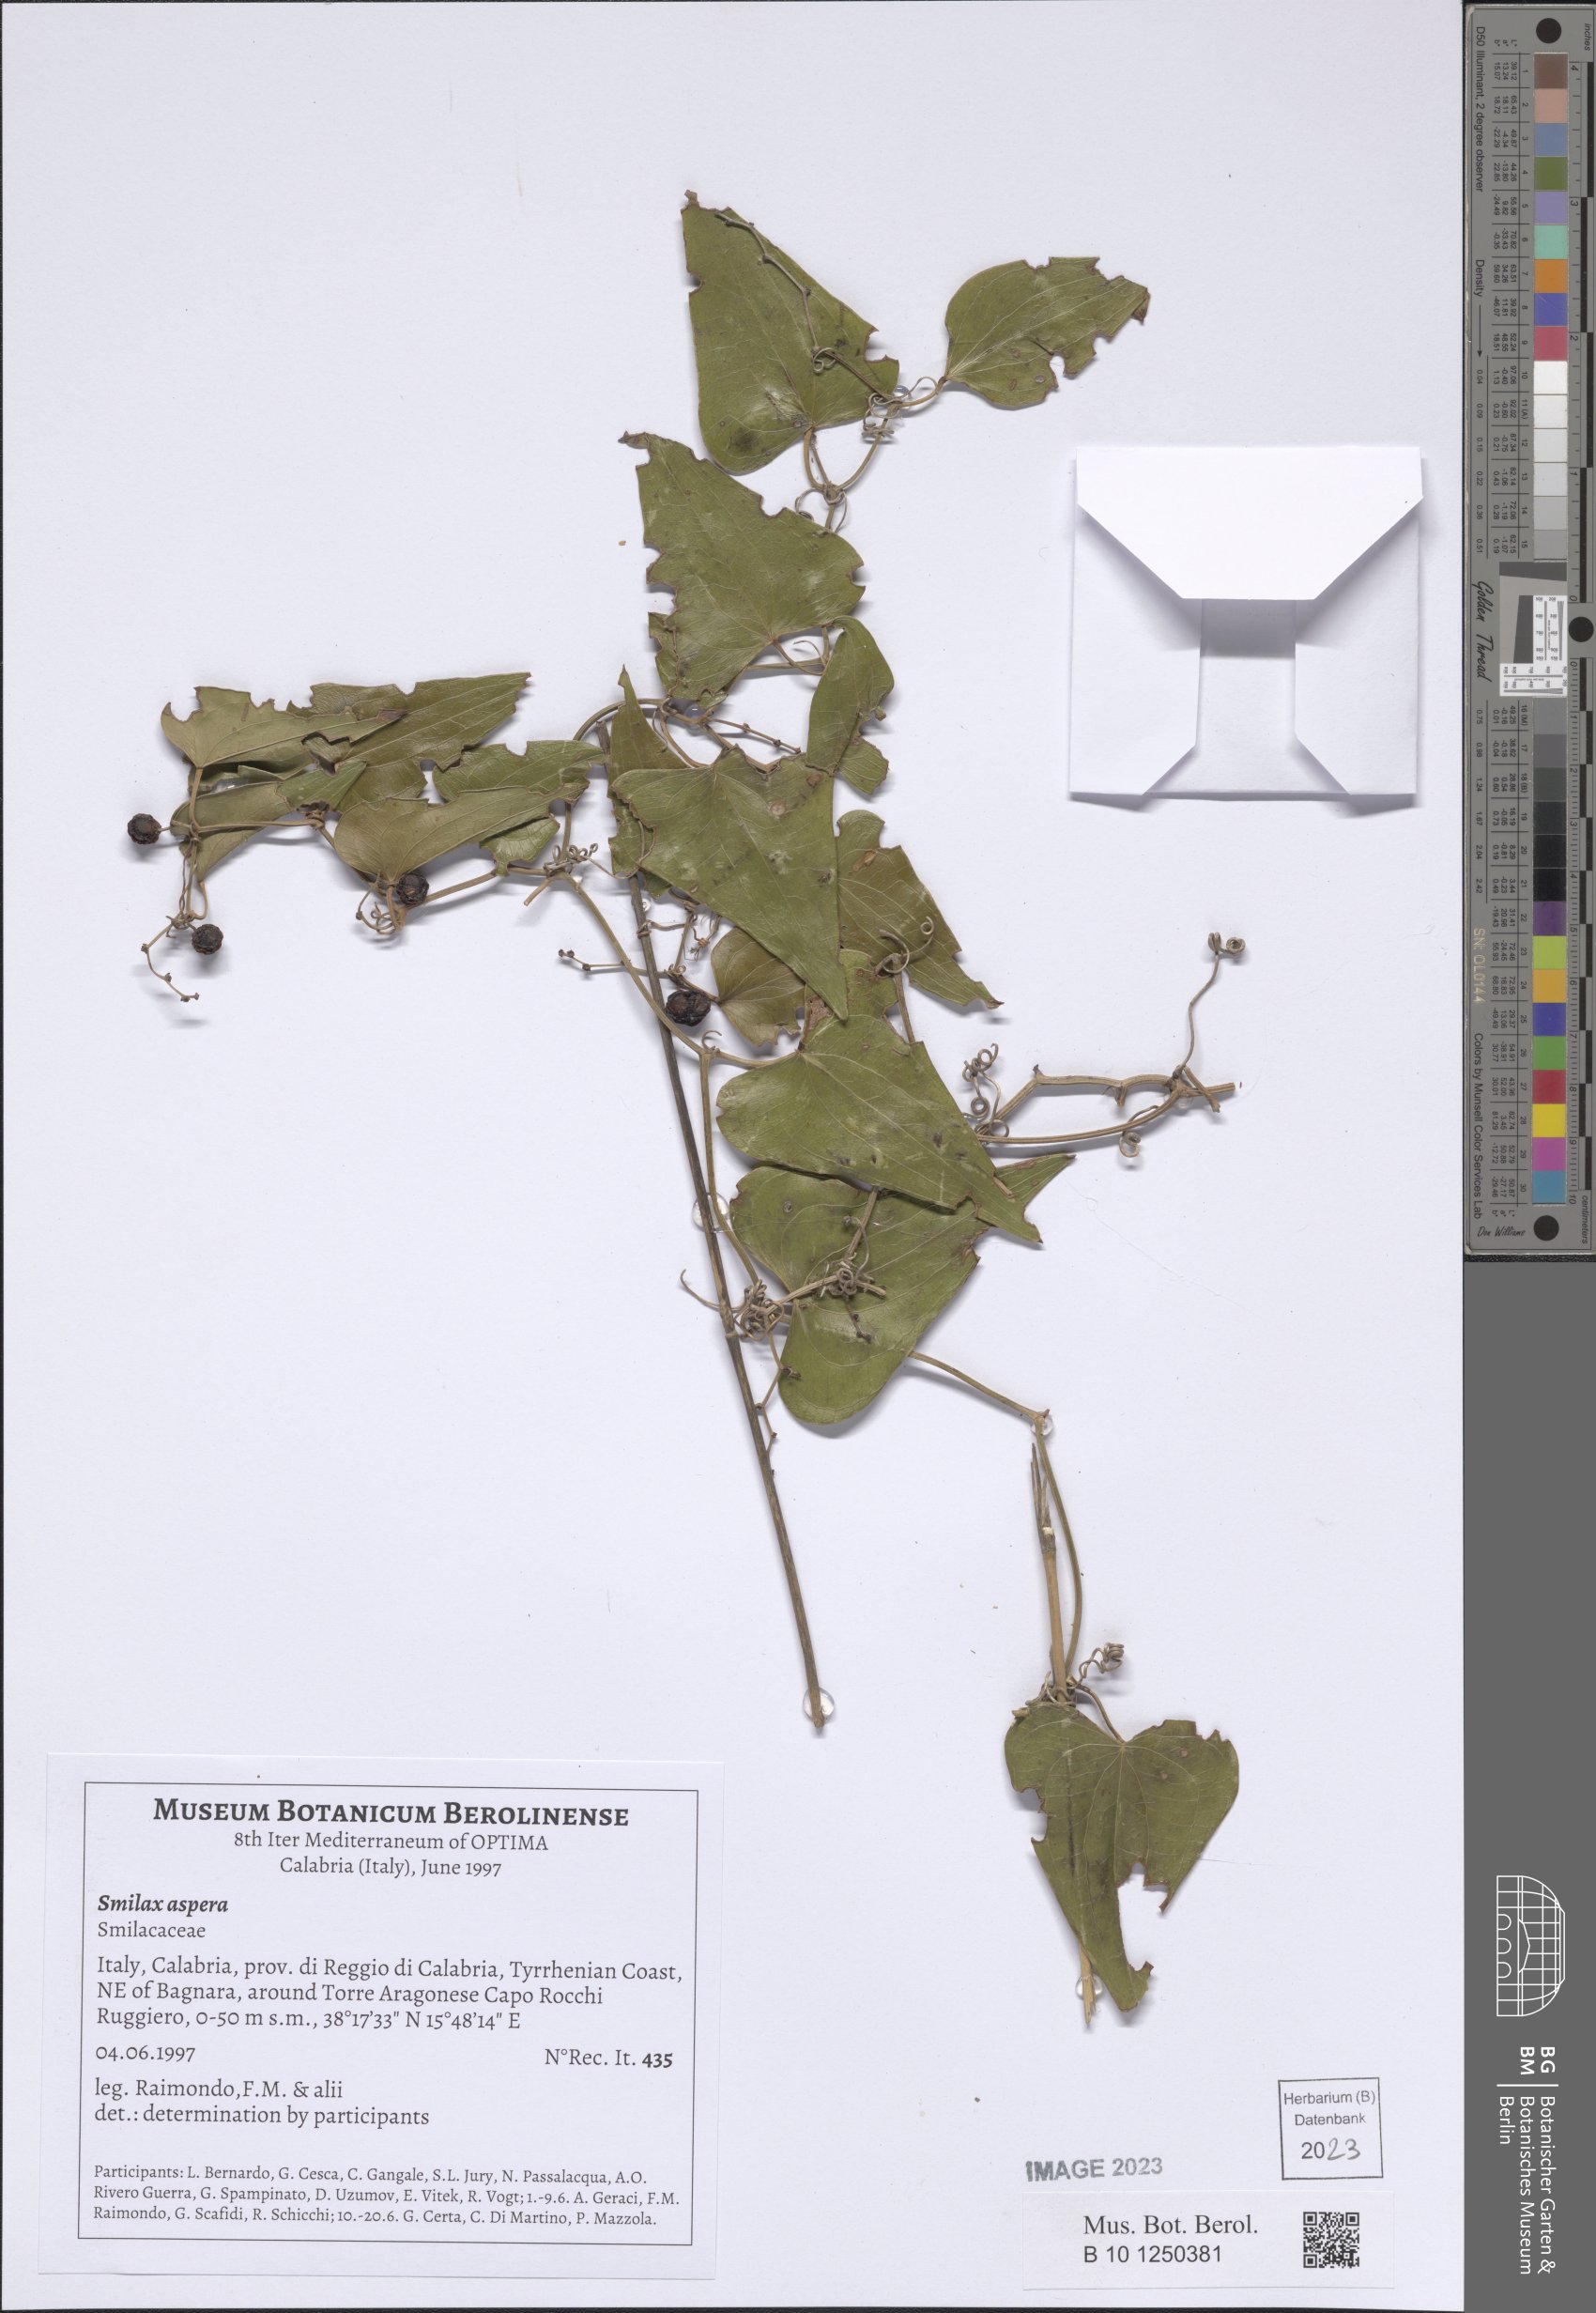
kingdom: Plantae
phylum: Tracheophyta
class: Liliopsida
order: Liliales
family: Smilacaceae
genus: Smilax
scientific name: Smilax aspera
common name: Common smilax
